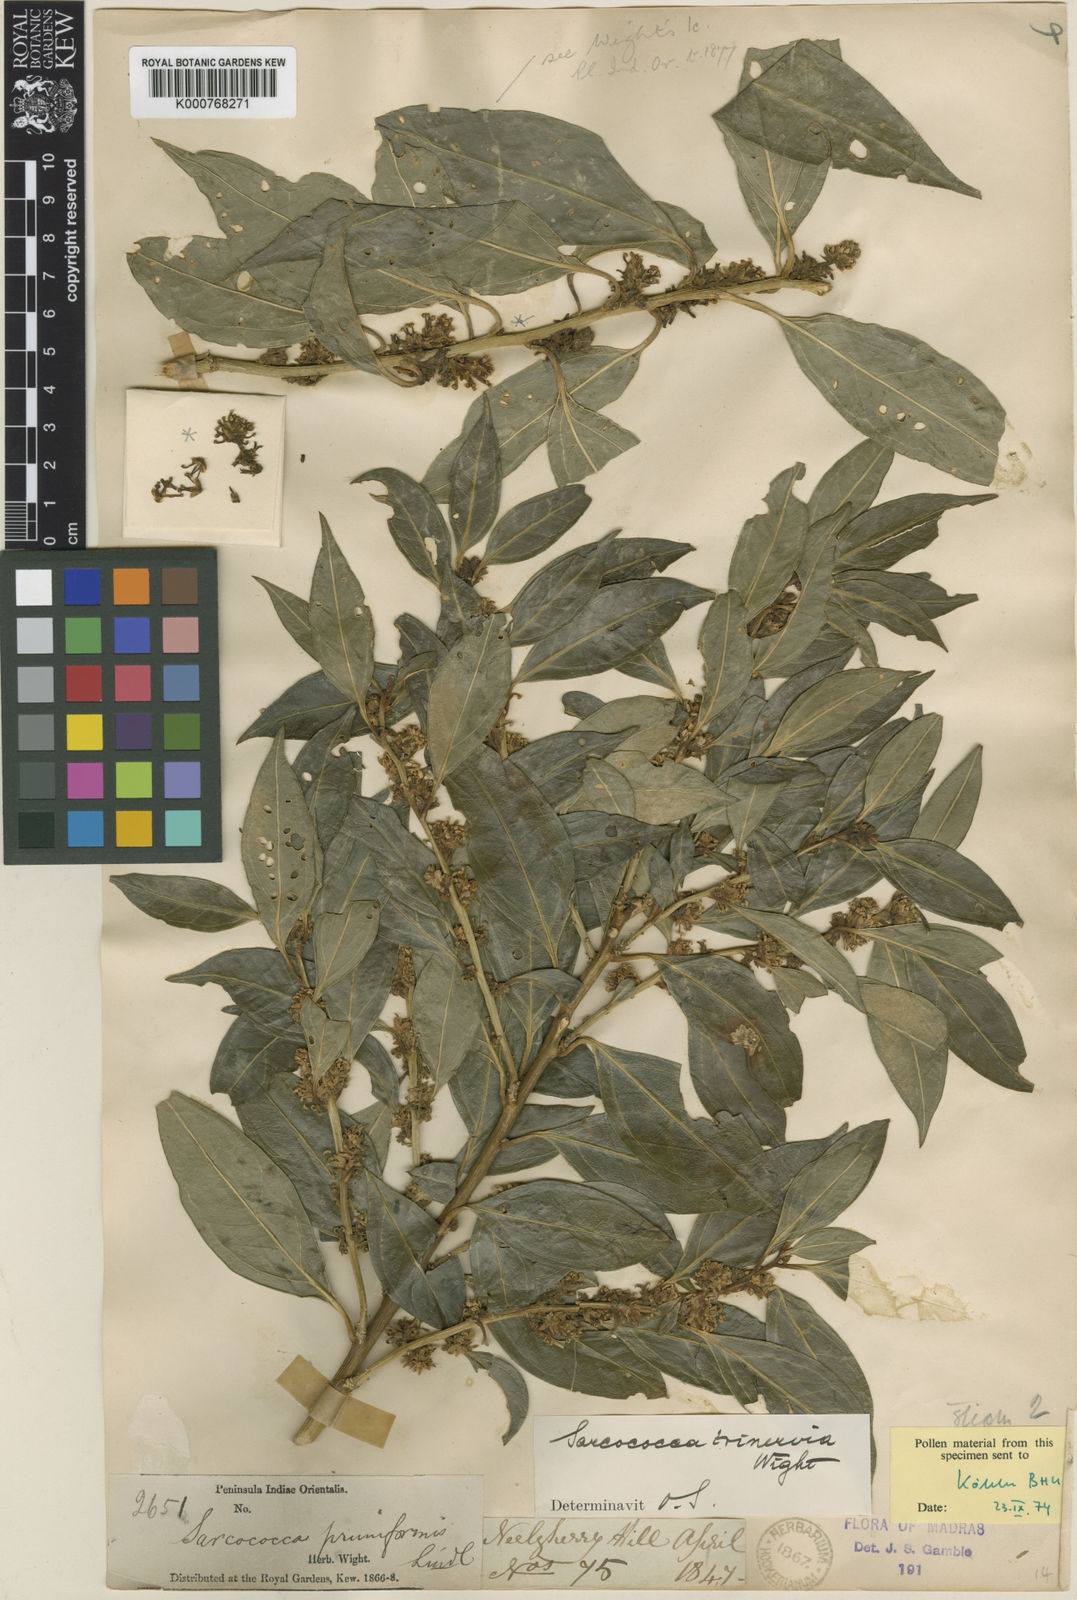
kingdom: Plantae
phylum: Tracheophyta
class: Magnoliopsida
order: Buxales
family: Buxaceae
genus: Sarcococca
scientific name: Sarcococca coriacea
